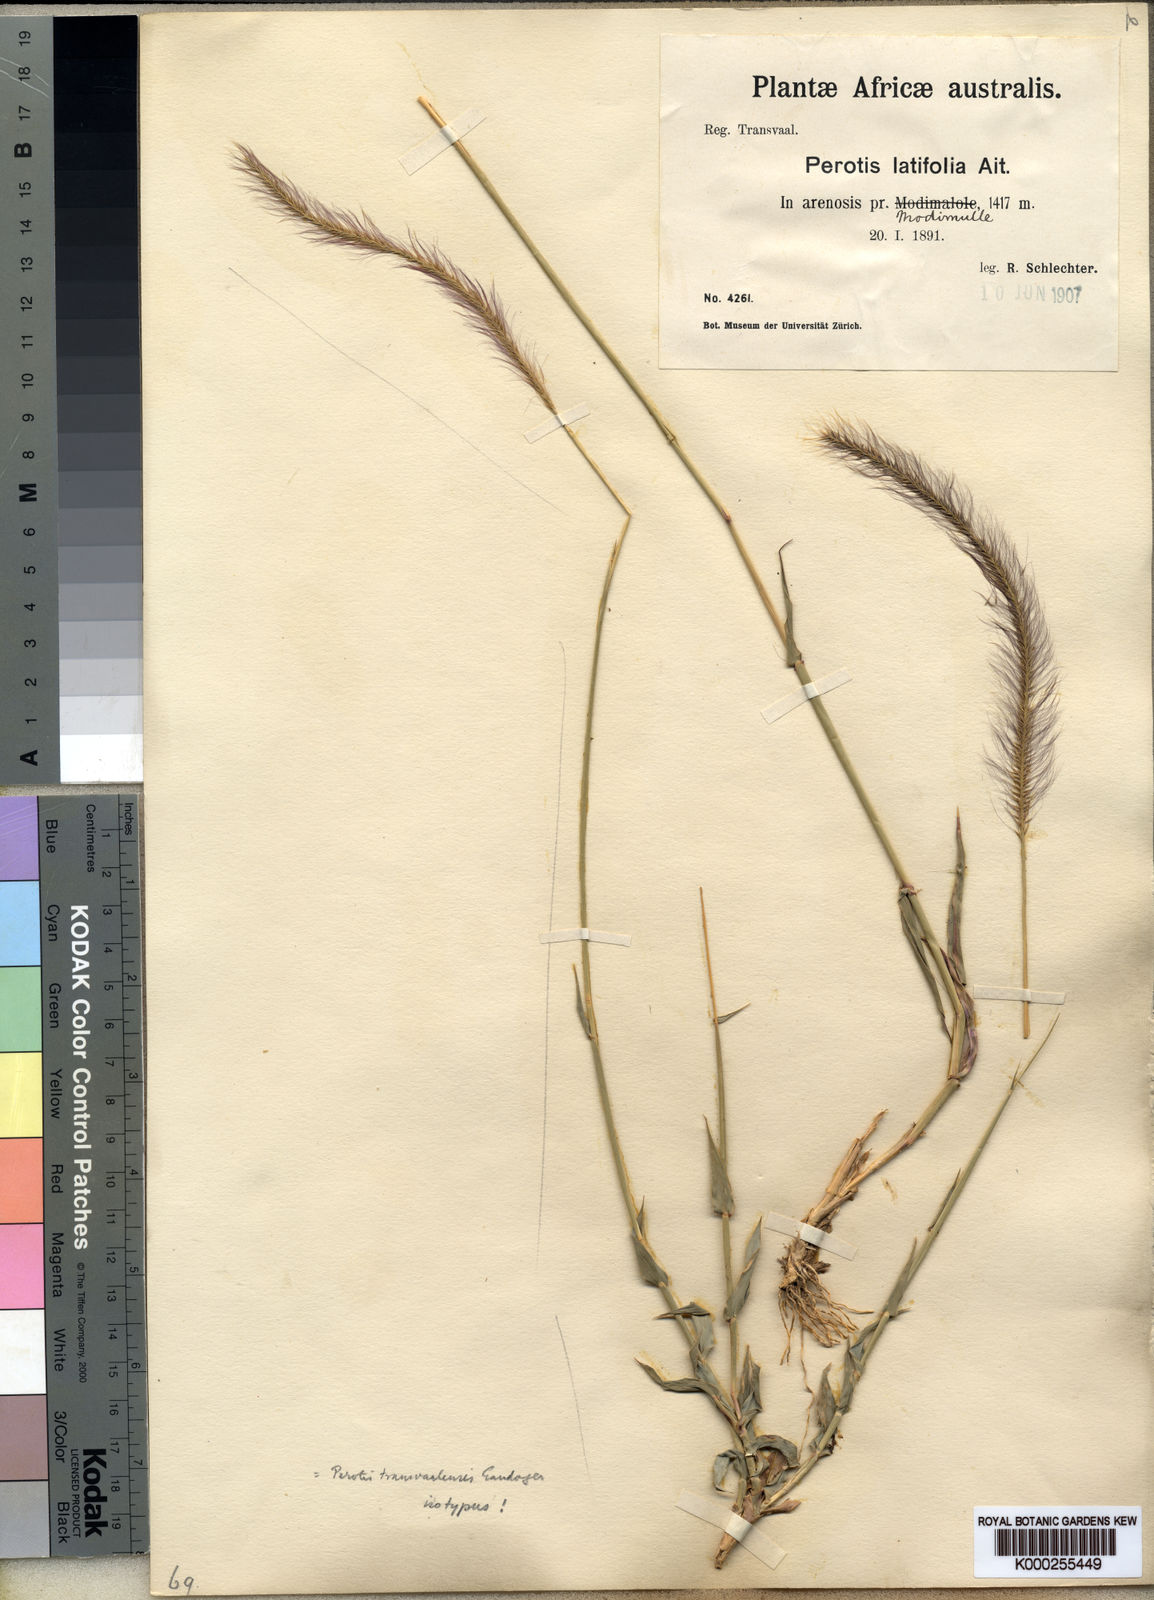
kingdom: Plantae
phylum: Tracheophyta
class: Liliopsida
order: Poales
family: Poaceae
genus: Perotis
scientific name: Perotis patens
